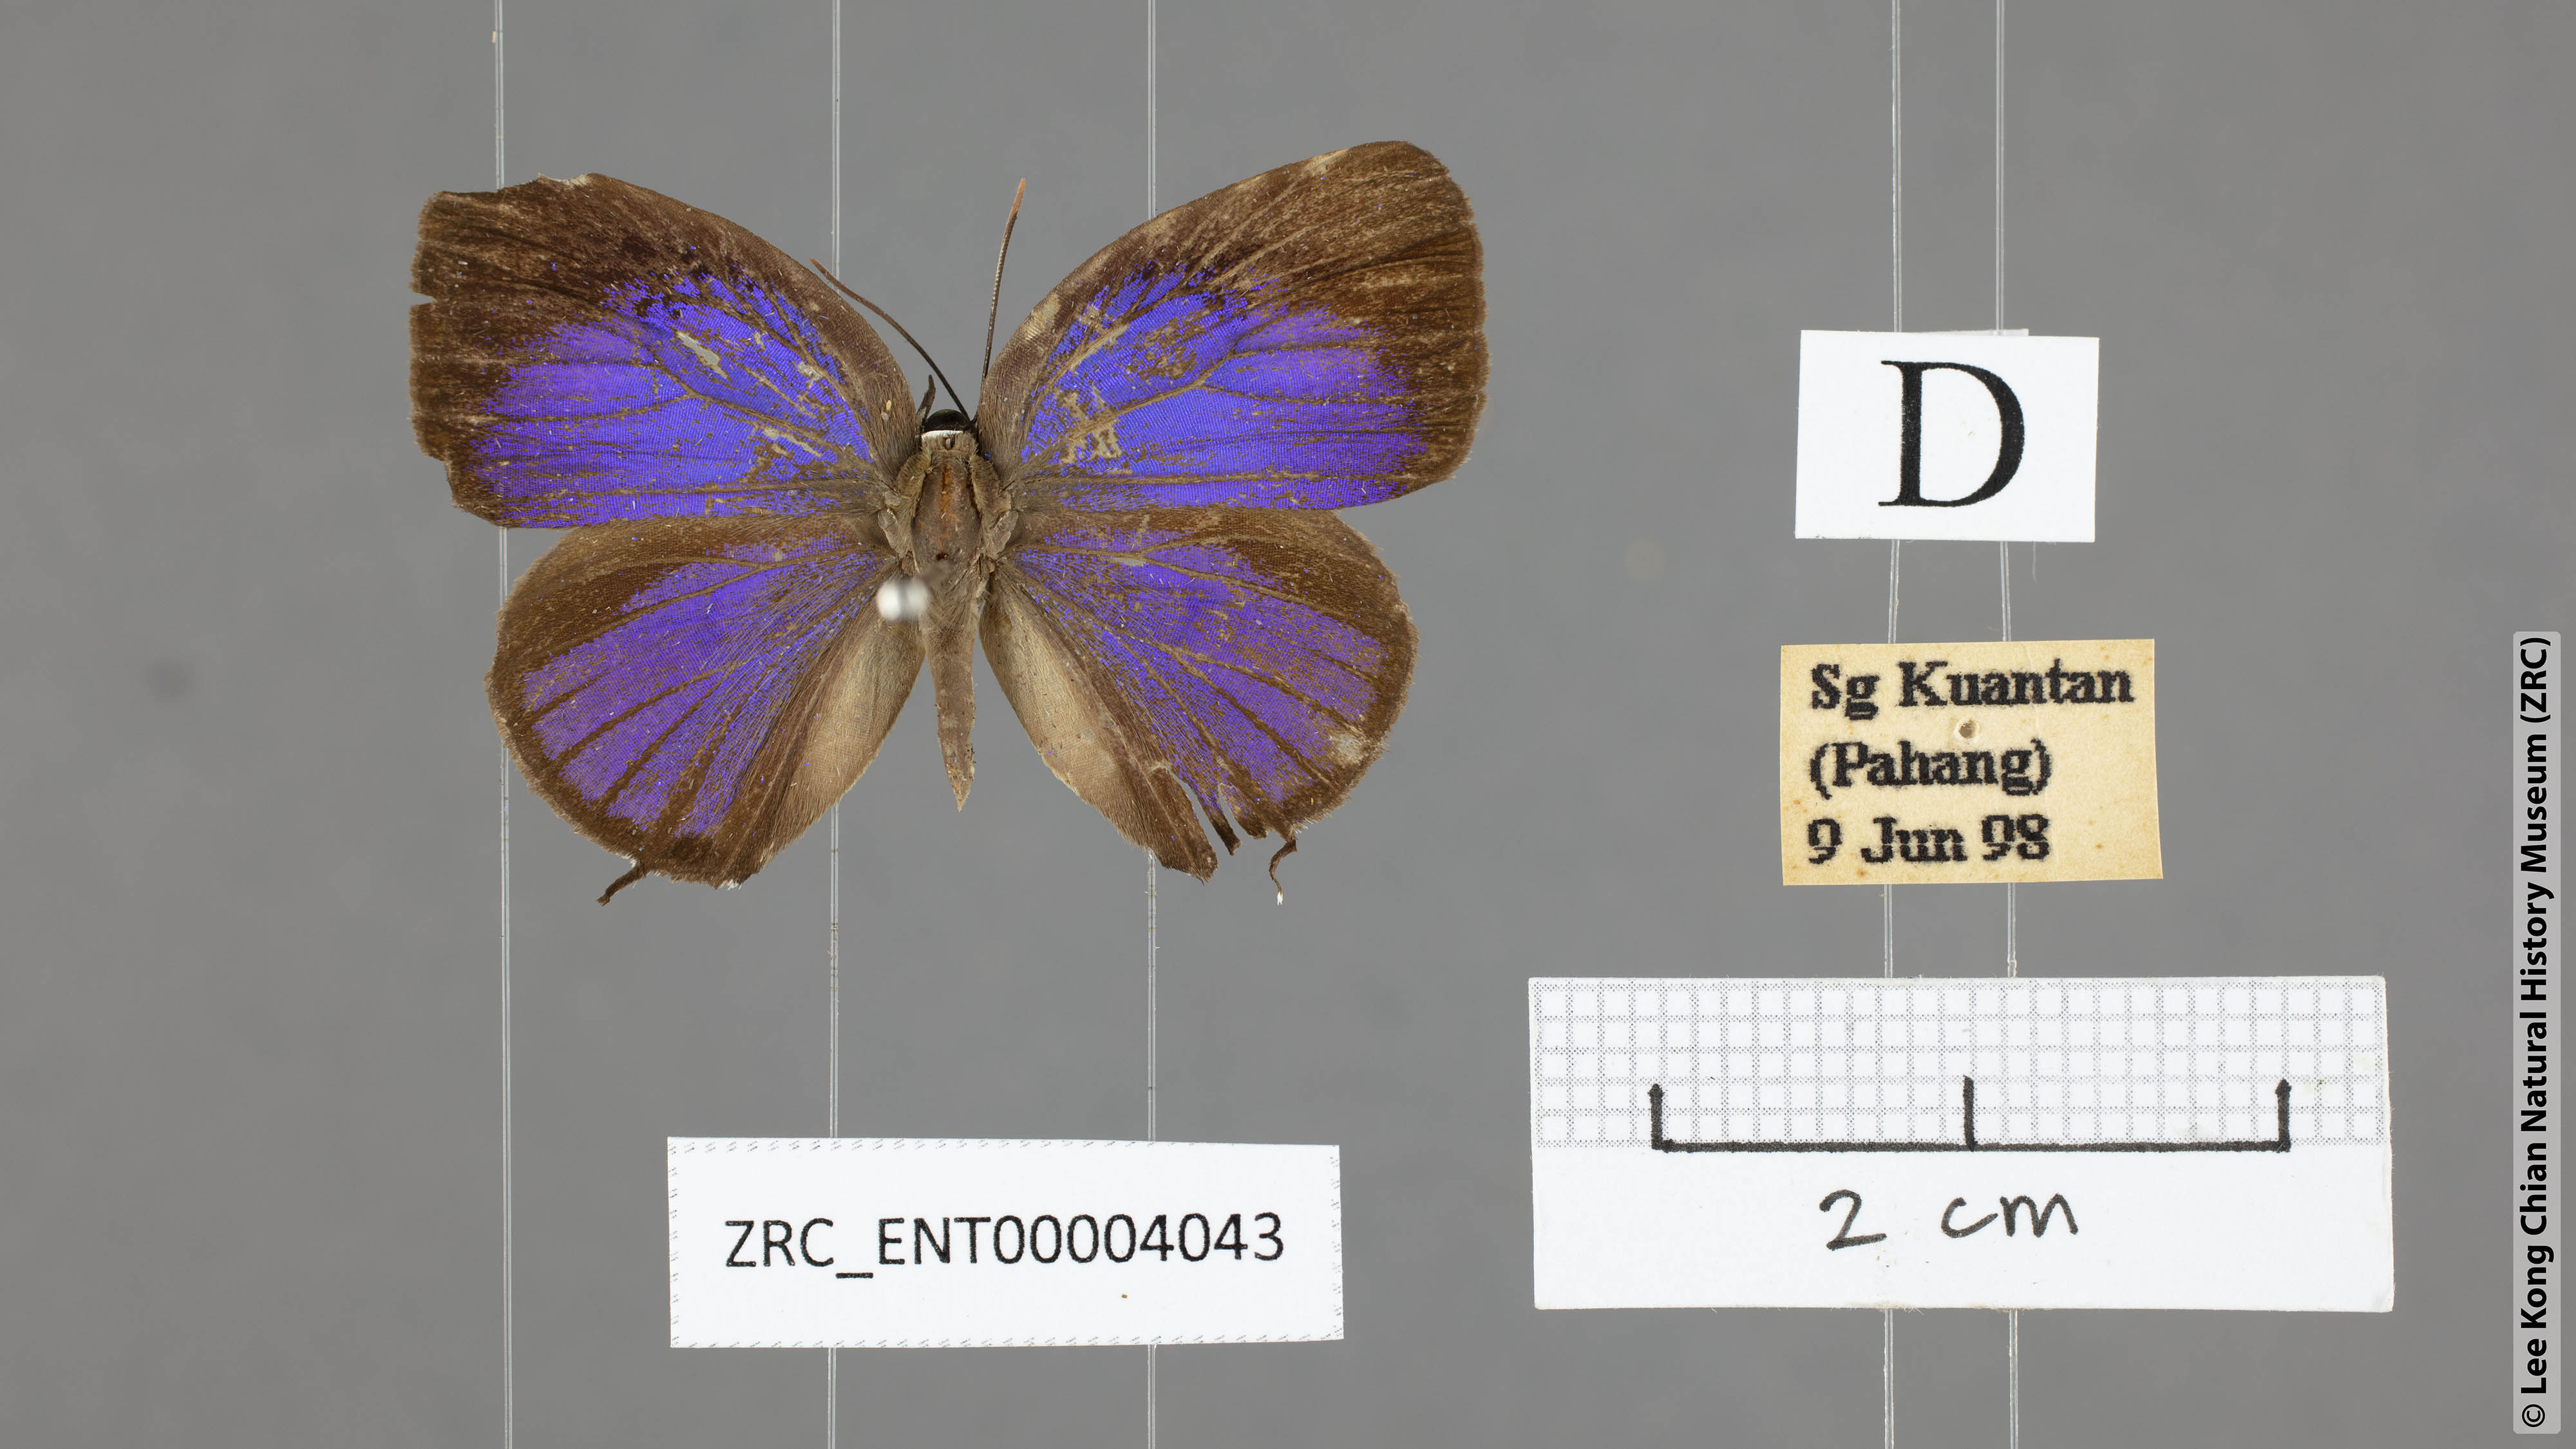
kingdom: Animalia
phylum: Arthropoda
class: Insecta
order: Lepidoptera
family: Lycaenidae
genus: Arhopala
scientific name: Arhopala pseudomuta
